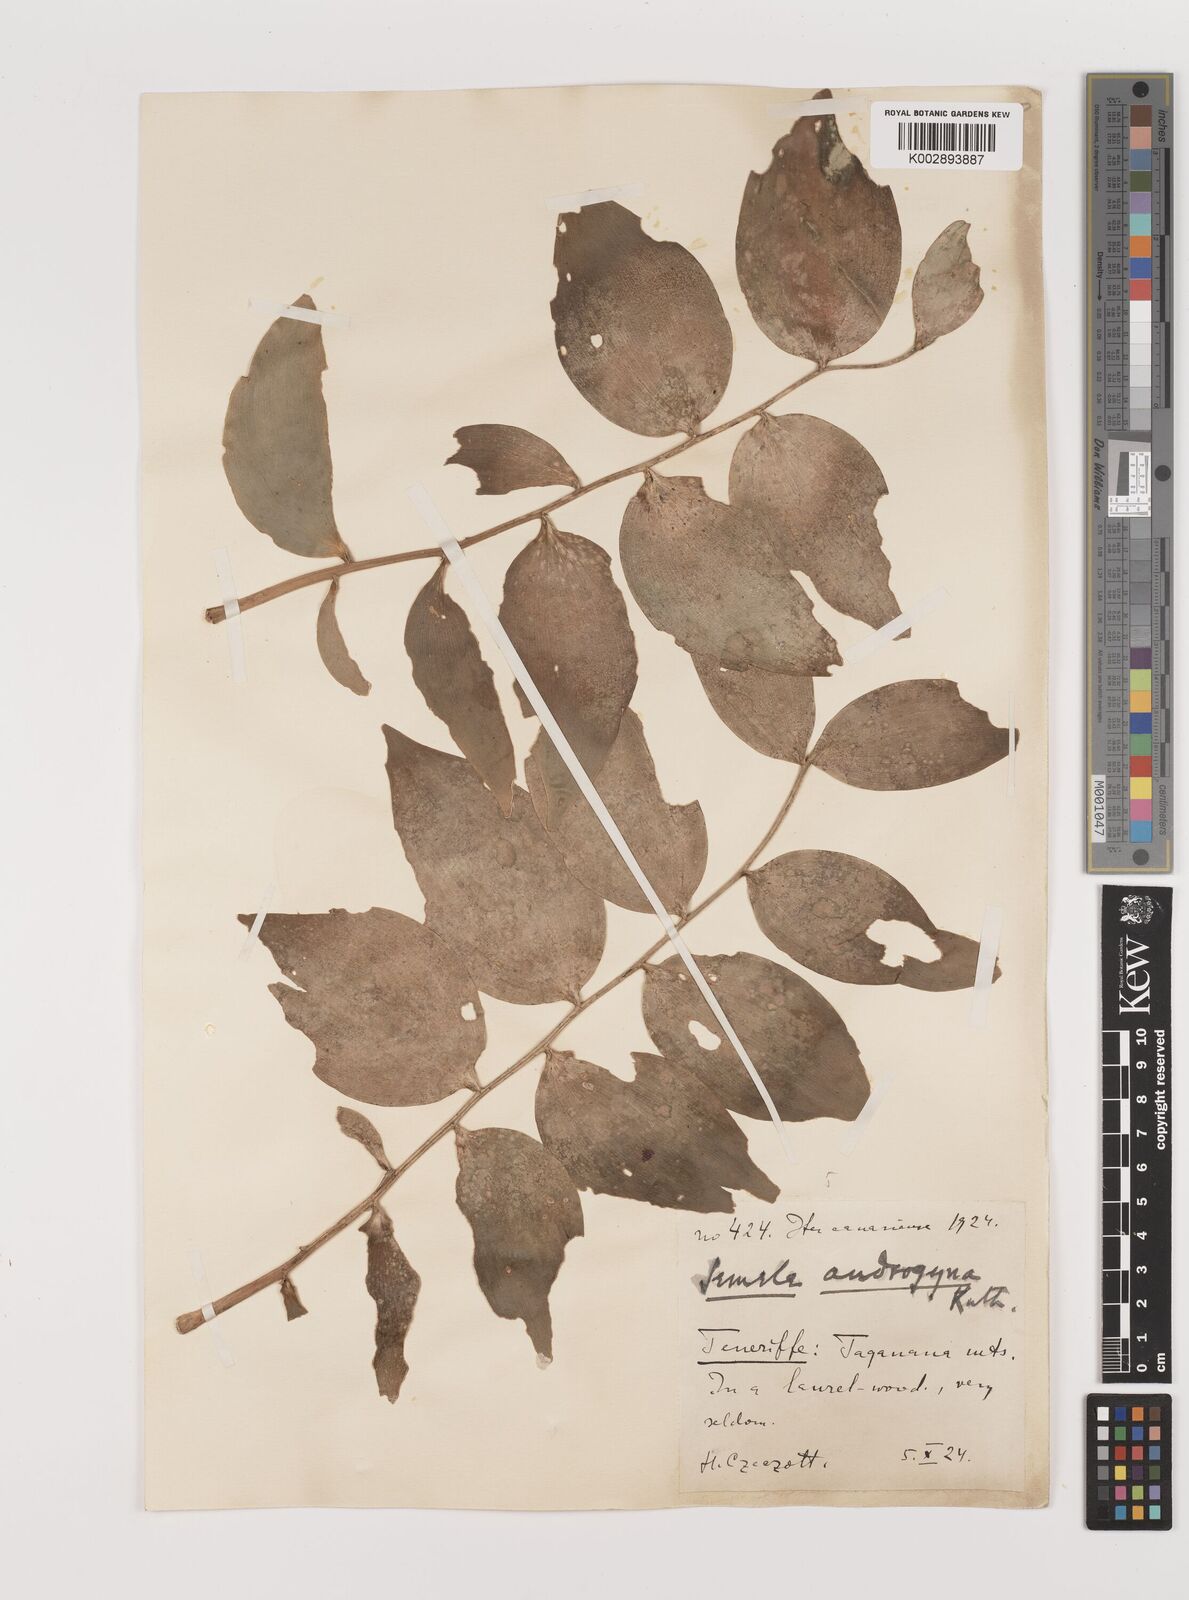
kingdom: Plantae
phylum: Tracheophyta
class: Liliopsida
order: Asparagales
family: Asparagaceae
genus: Semele
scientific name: Semele androgyna
